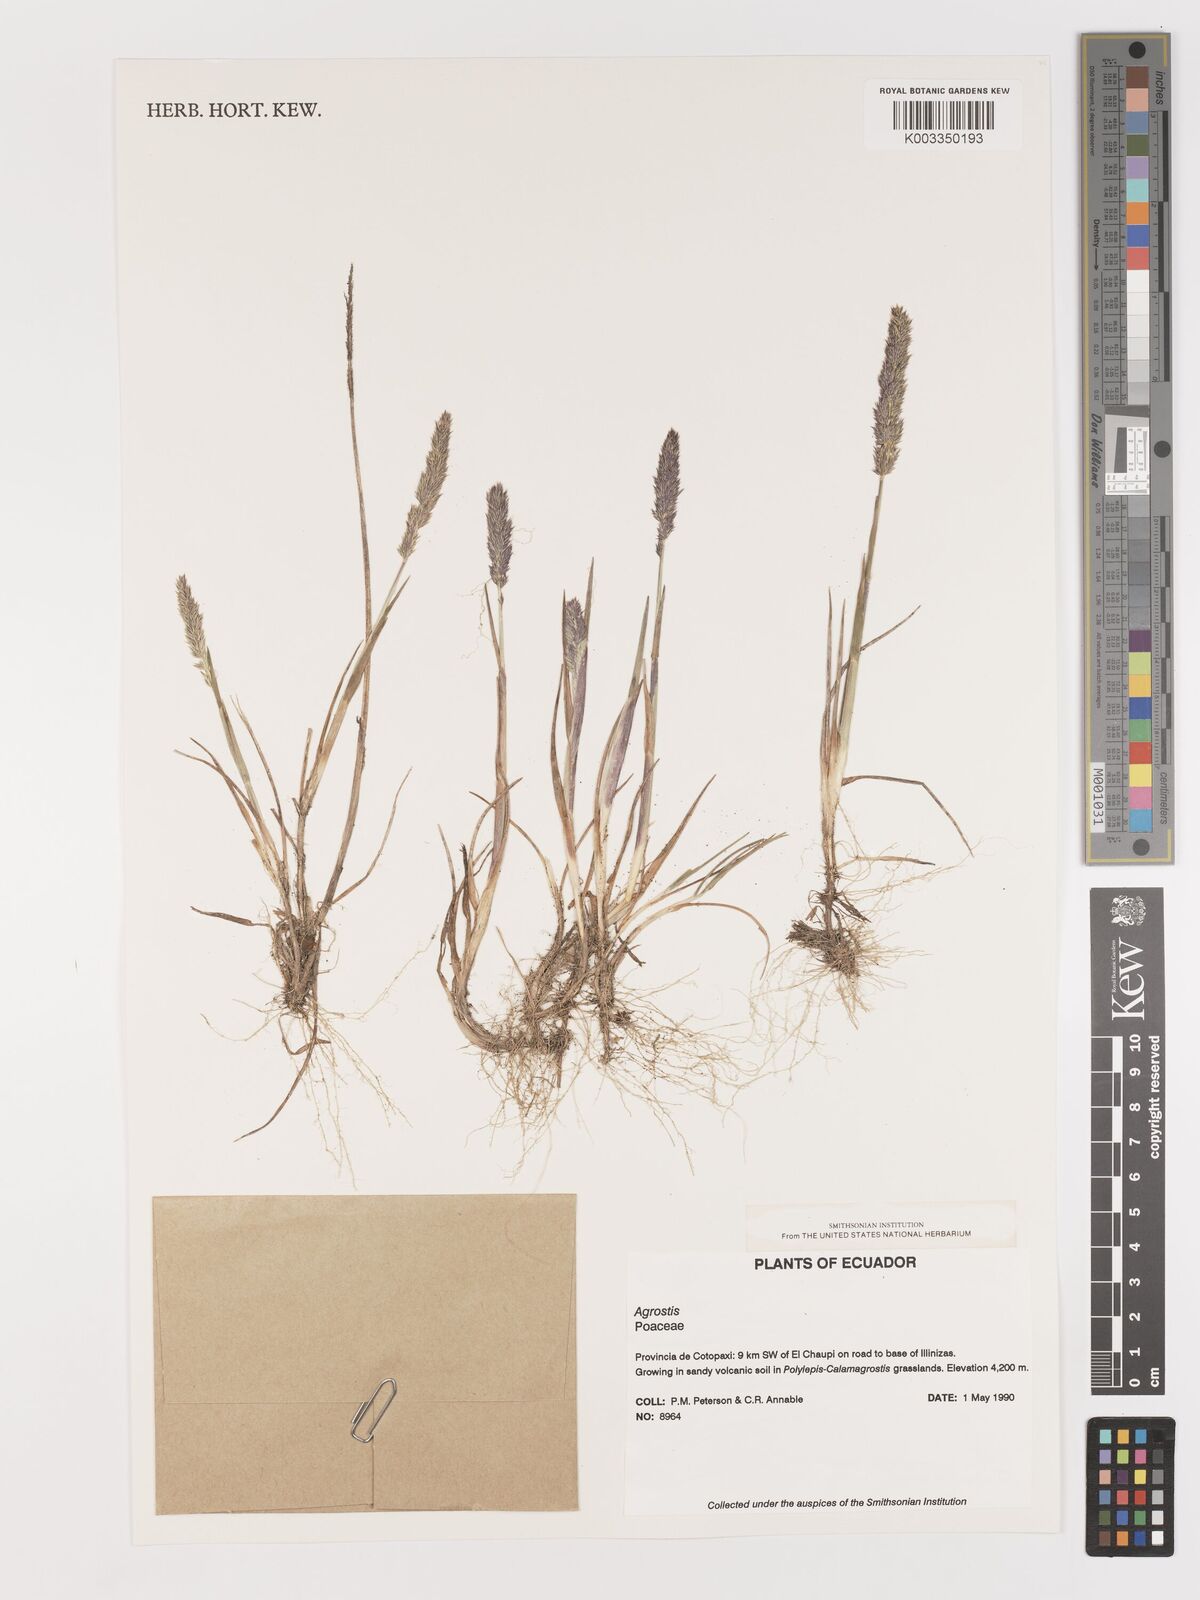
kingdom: Plantae
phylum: Tracheophyta
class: Liliopsida
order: Poales
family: Poaceae
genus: Agrostis
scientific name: Agrostis
